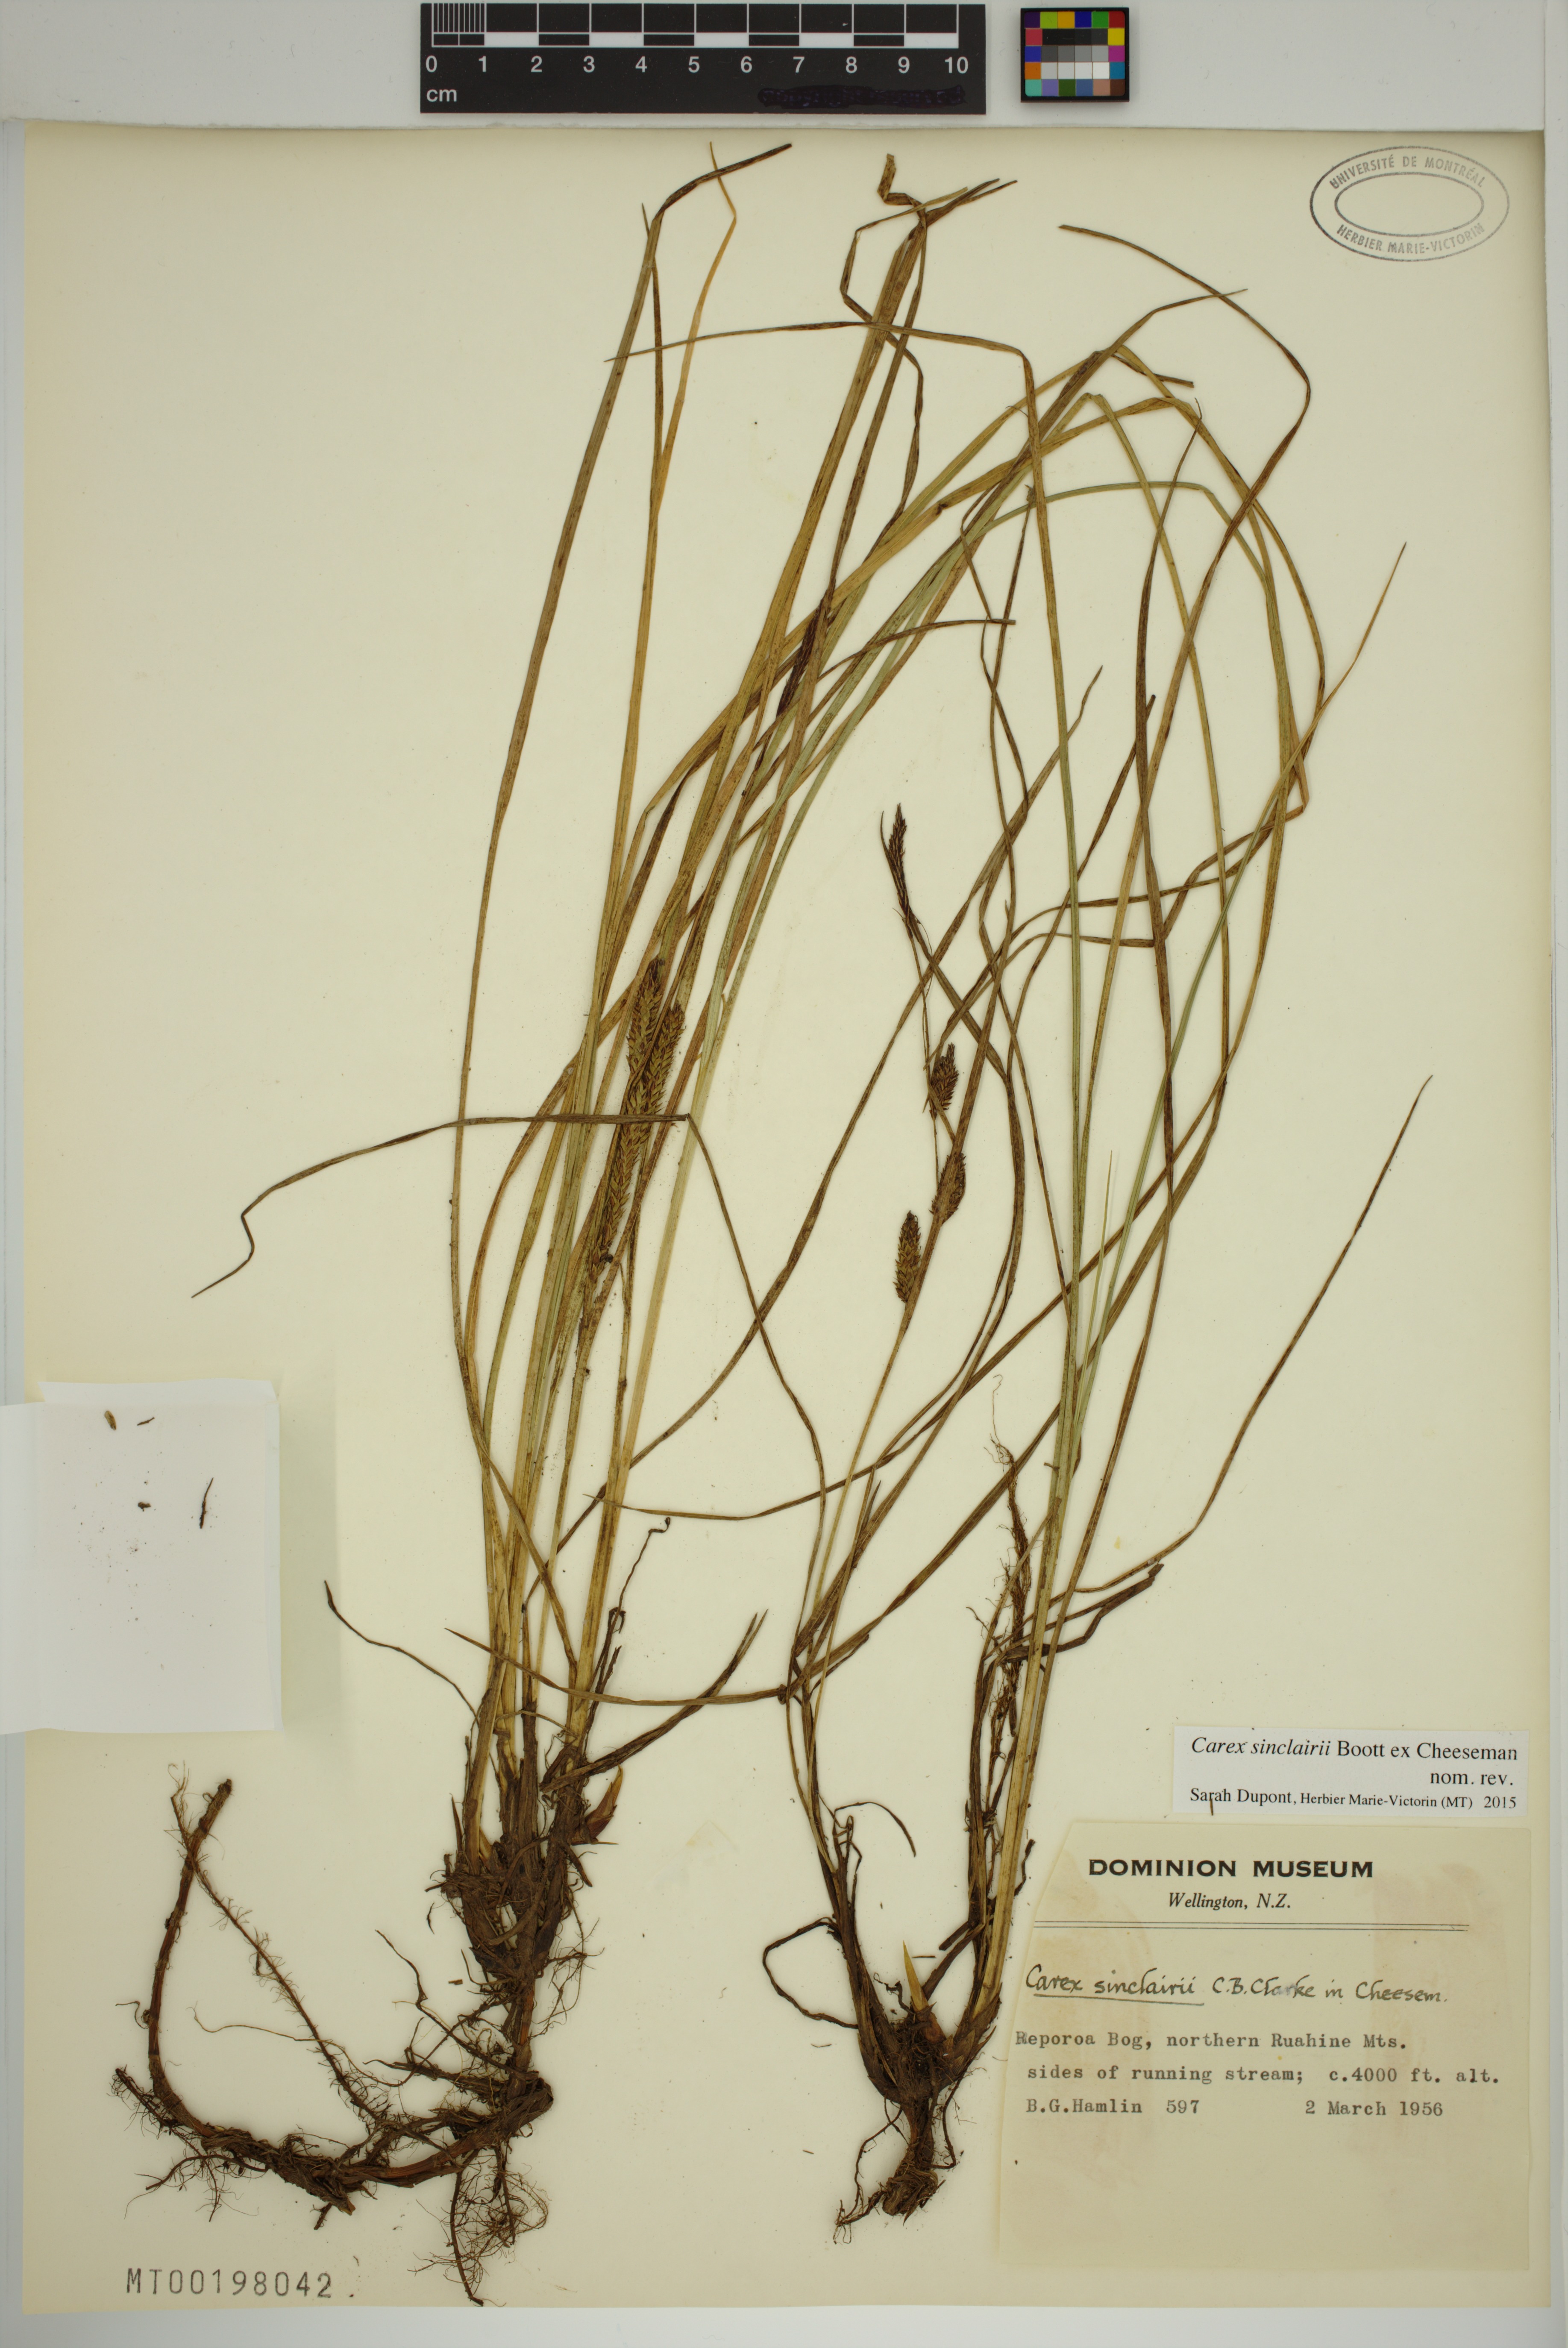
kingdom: Plantae
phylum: Tracheophyta
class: Liliopsida
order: Poales
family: Cyperaceae
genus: Carex
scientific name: Carex sinclairii
